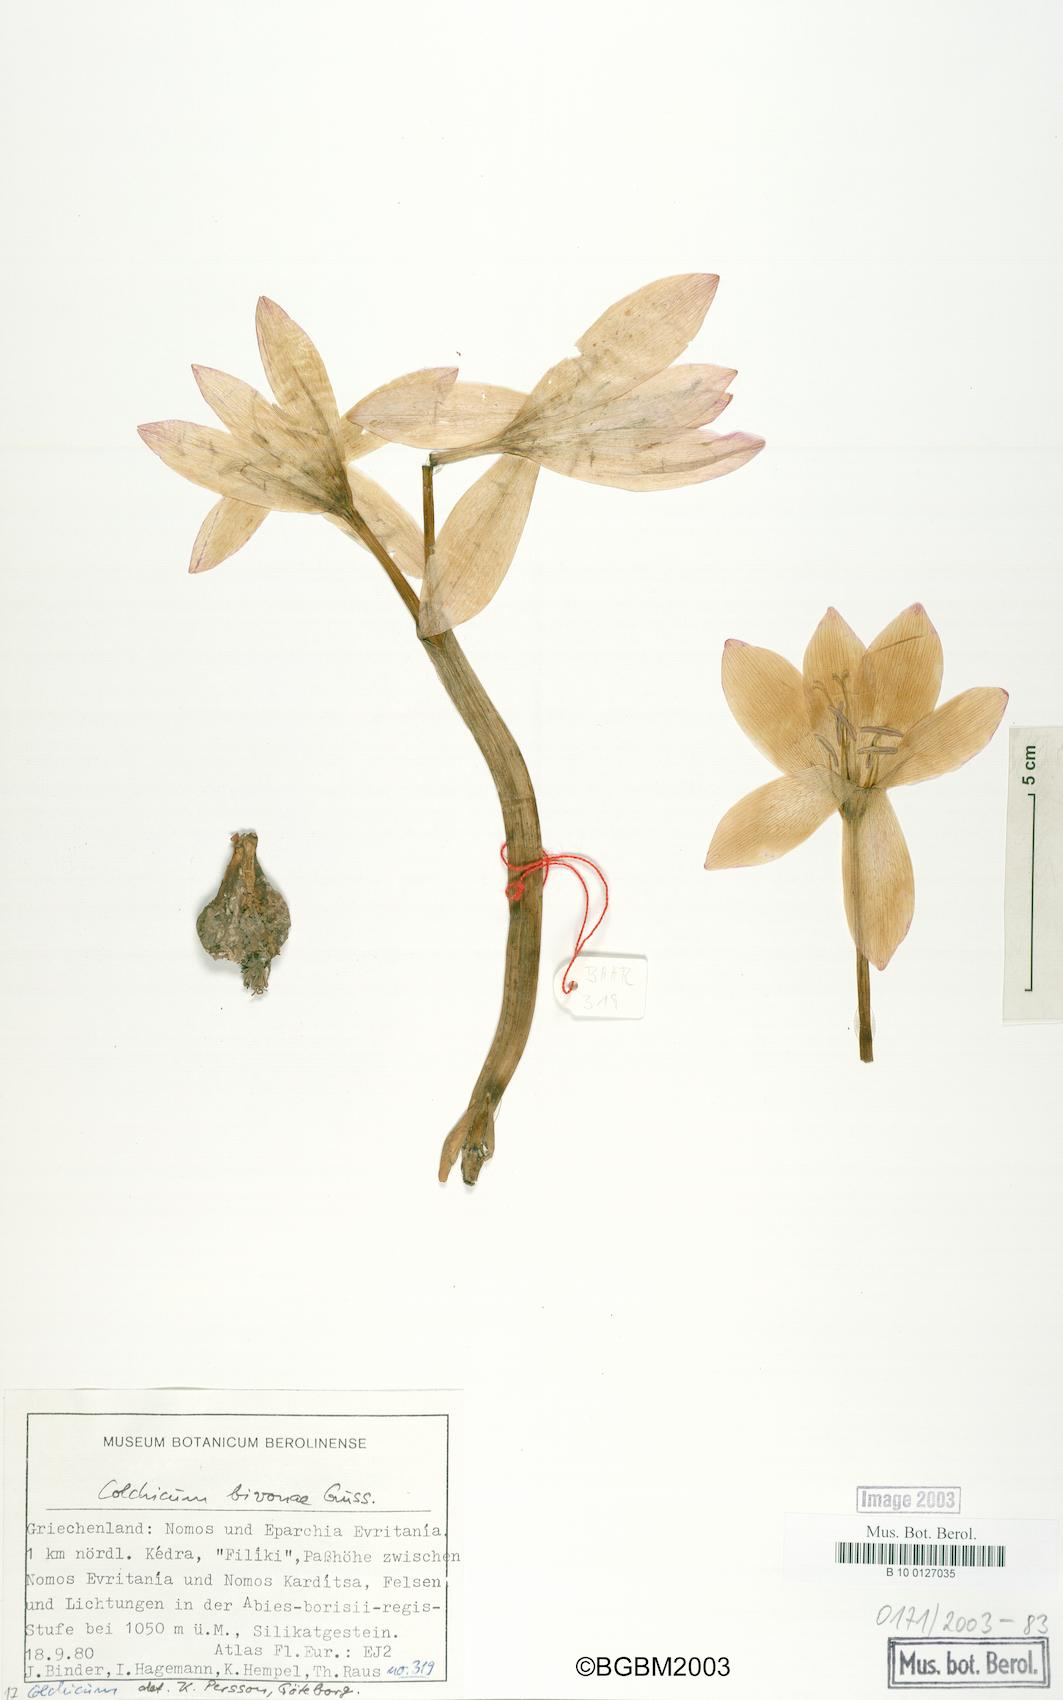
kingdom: Plantae
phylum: Tracheophyta
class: Liliopsida
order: Liliales
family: Colchicaceae
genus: Colchicum
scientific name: Colchicum bivonae
